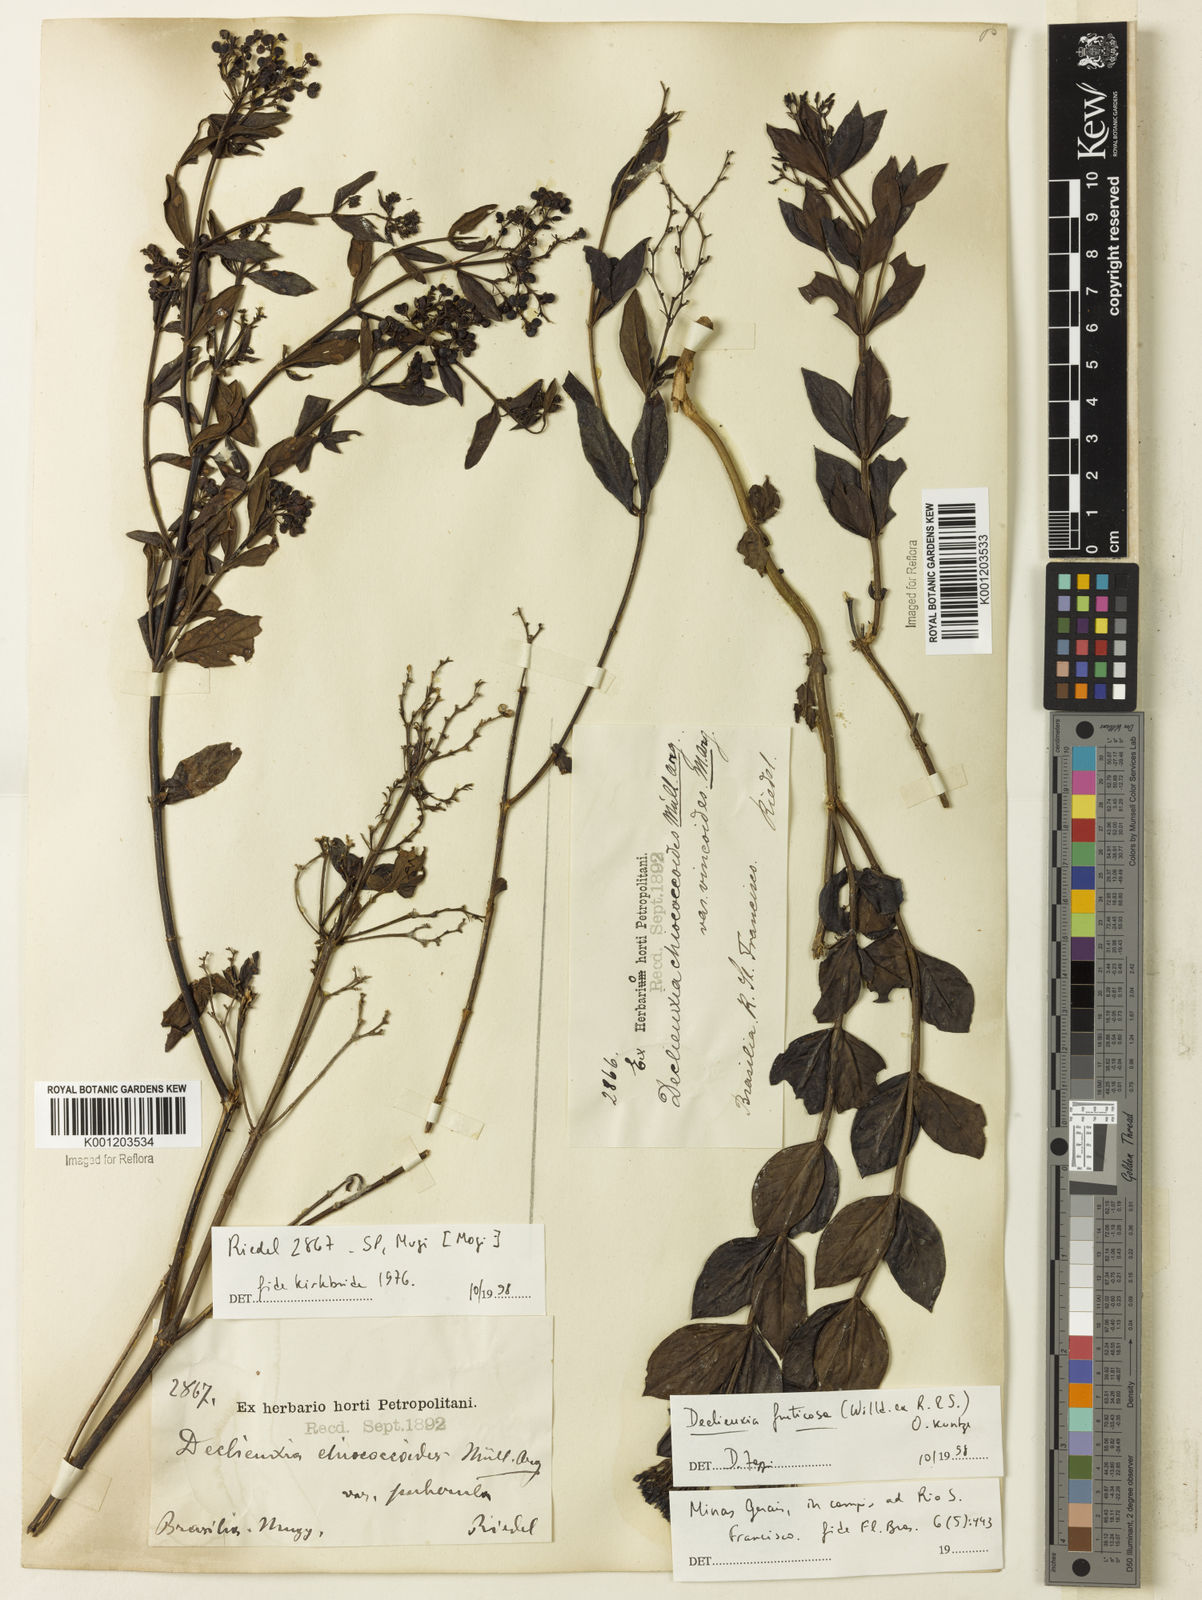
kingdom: Plantae
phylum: Tracheophyta
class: Magnoliopsida
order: Gentianales
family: Rubiaceae
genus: Declieuxia
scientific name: Declieuxia fruticosa
